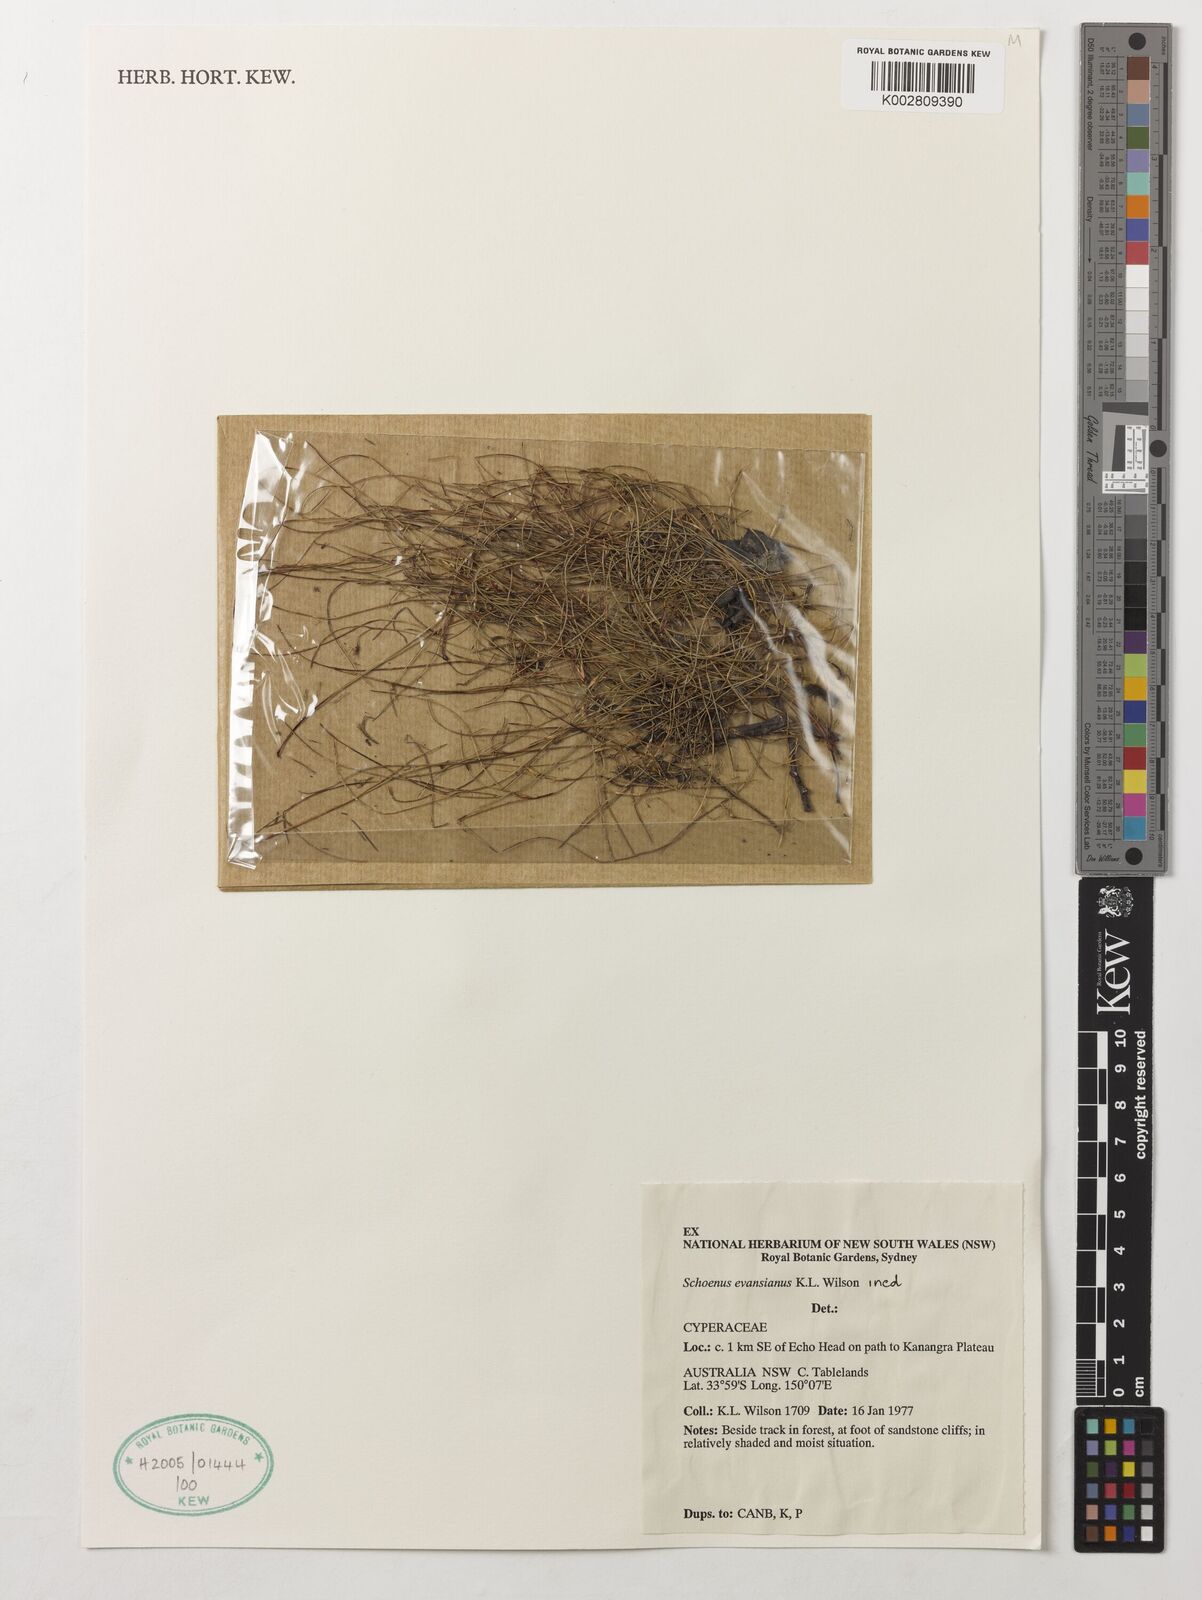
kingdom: Plantae
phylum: Tracheophyta
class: Liliopsida
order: Poales
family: Cyperaceae
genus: Schoenus
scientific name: Schoenus evansianus
